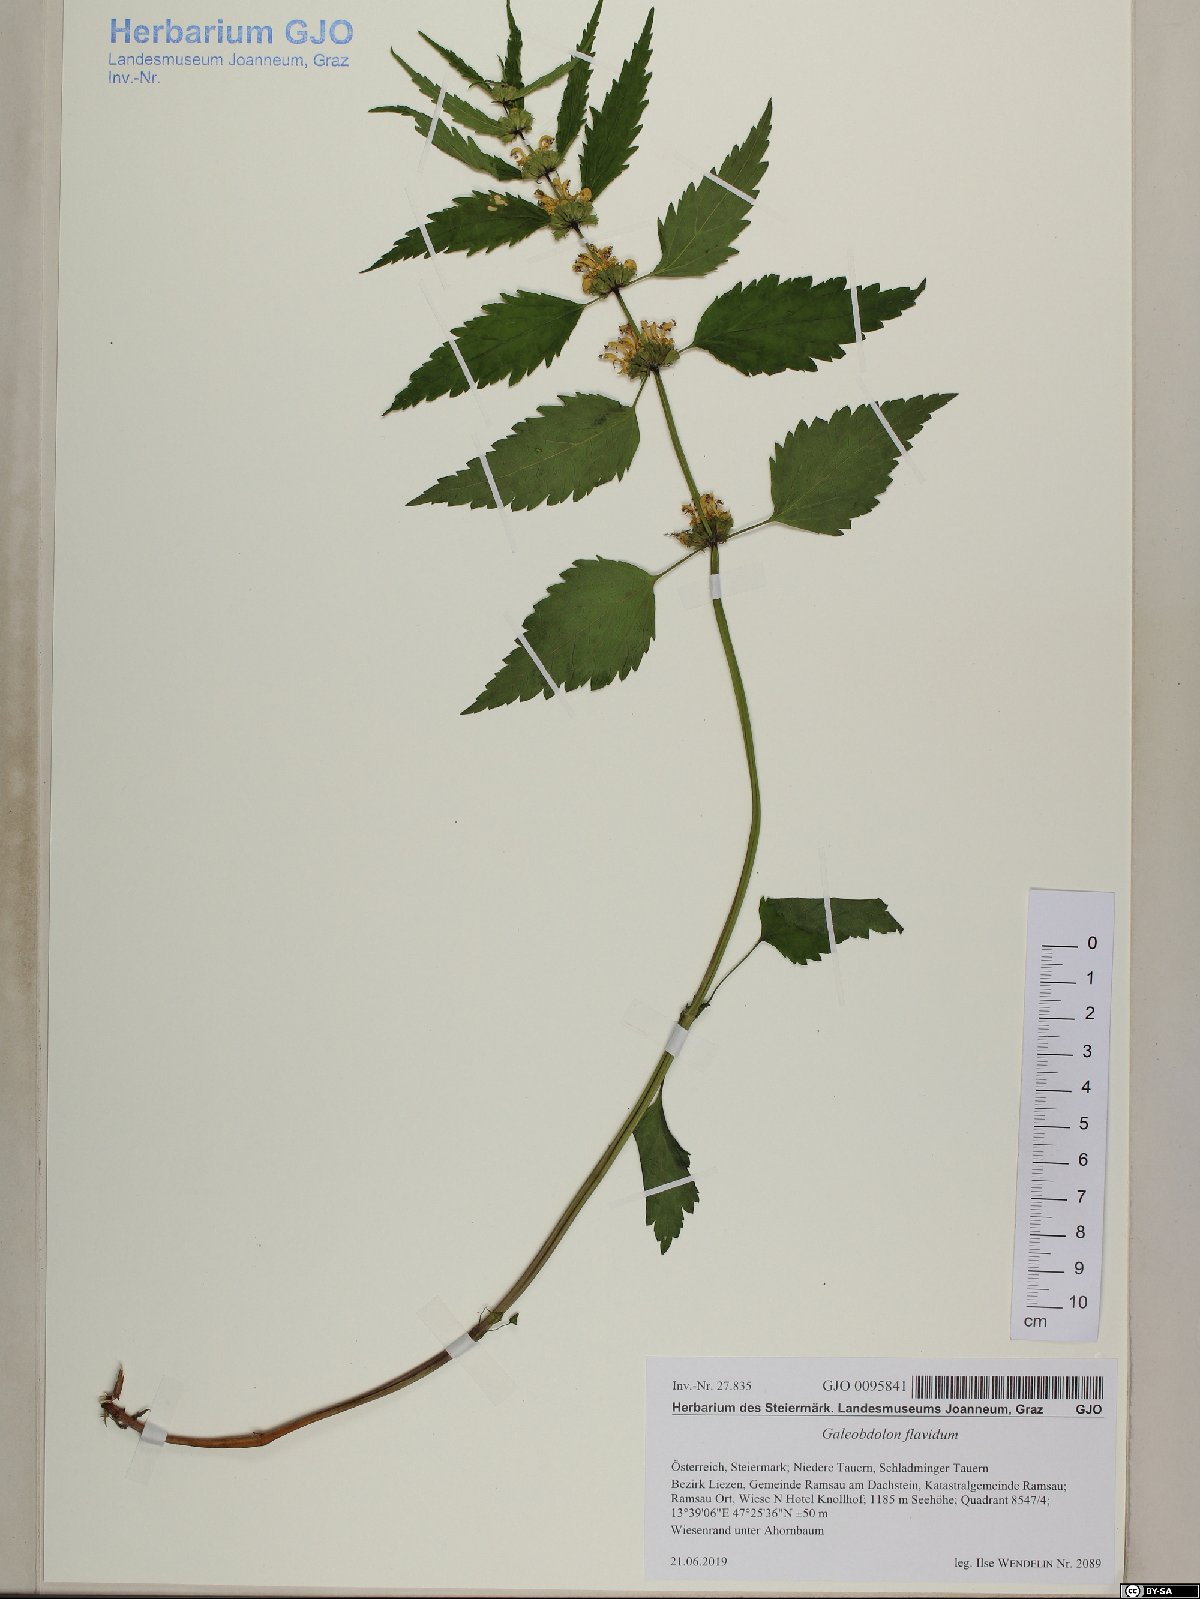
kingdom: Plantae
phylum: Tracheophyta
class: Magnoliopsida
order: Lamiales
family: Lamiaceae
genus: Lamium
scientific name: Lamium galeobdolon
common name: Yellow archangel
